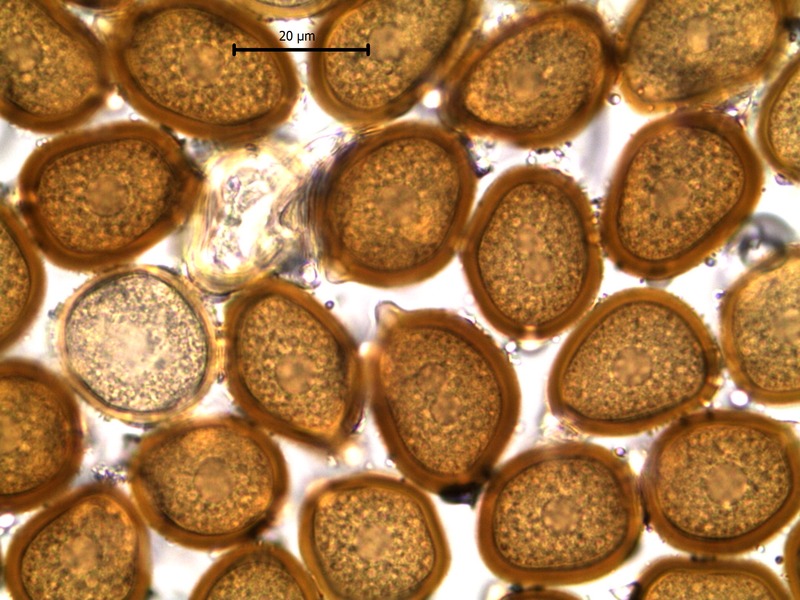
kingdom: Fungi
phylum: Basidiomycota
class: Pucciniomycetes
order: Pucciniales
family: Pucciniaceae
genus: Uromyces
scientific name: Uromyces ficariae
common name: Bitter chocolate rust
